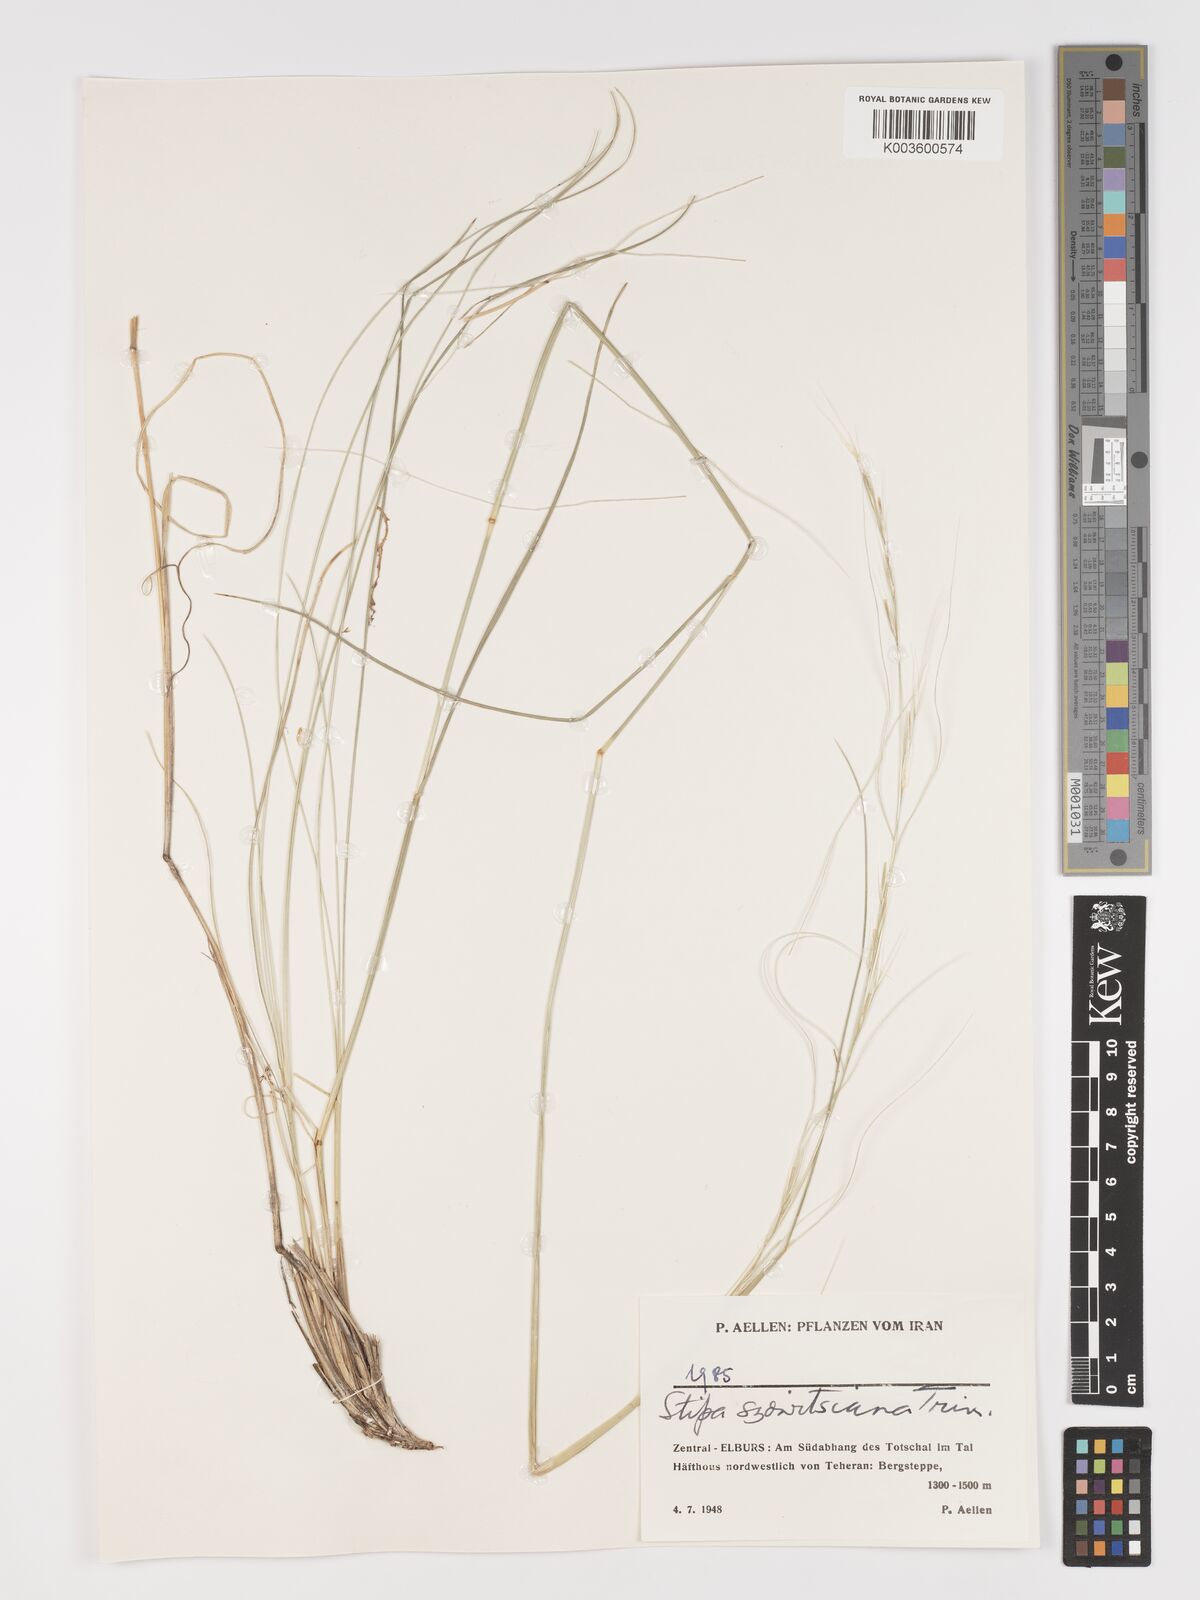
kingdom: Plantae
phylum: Tracheophyta
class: Liliopsida
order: Poales
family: Poaceae
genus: Stipa
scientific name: Stipa barbata
